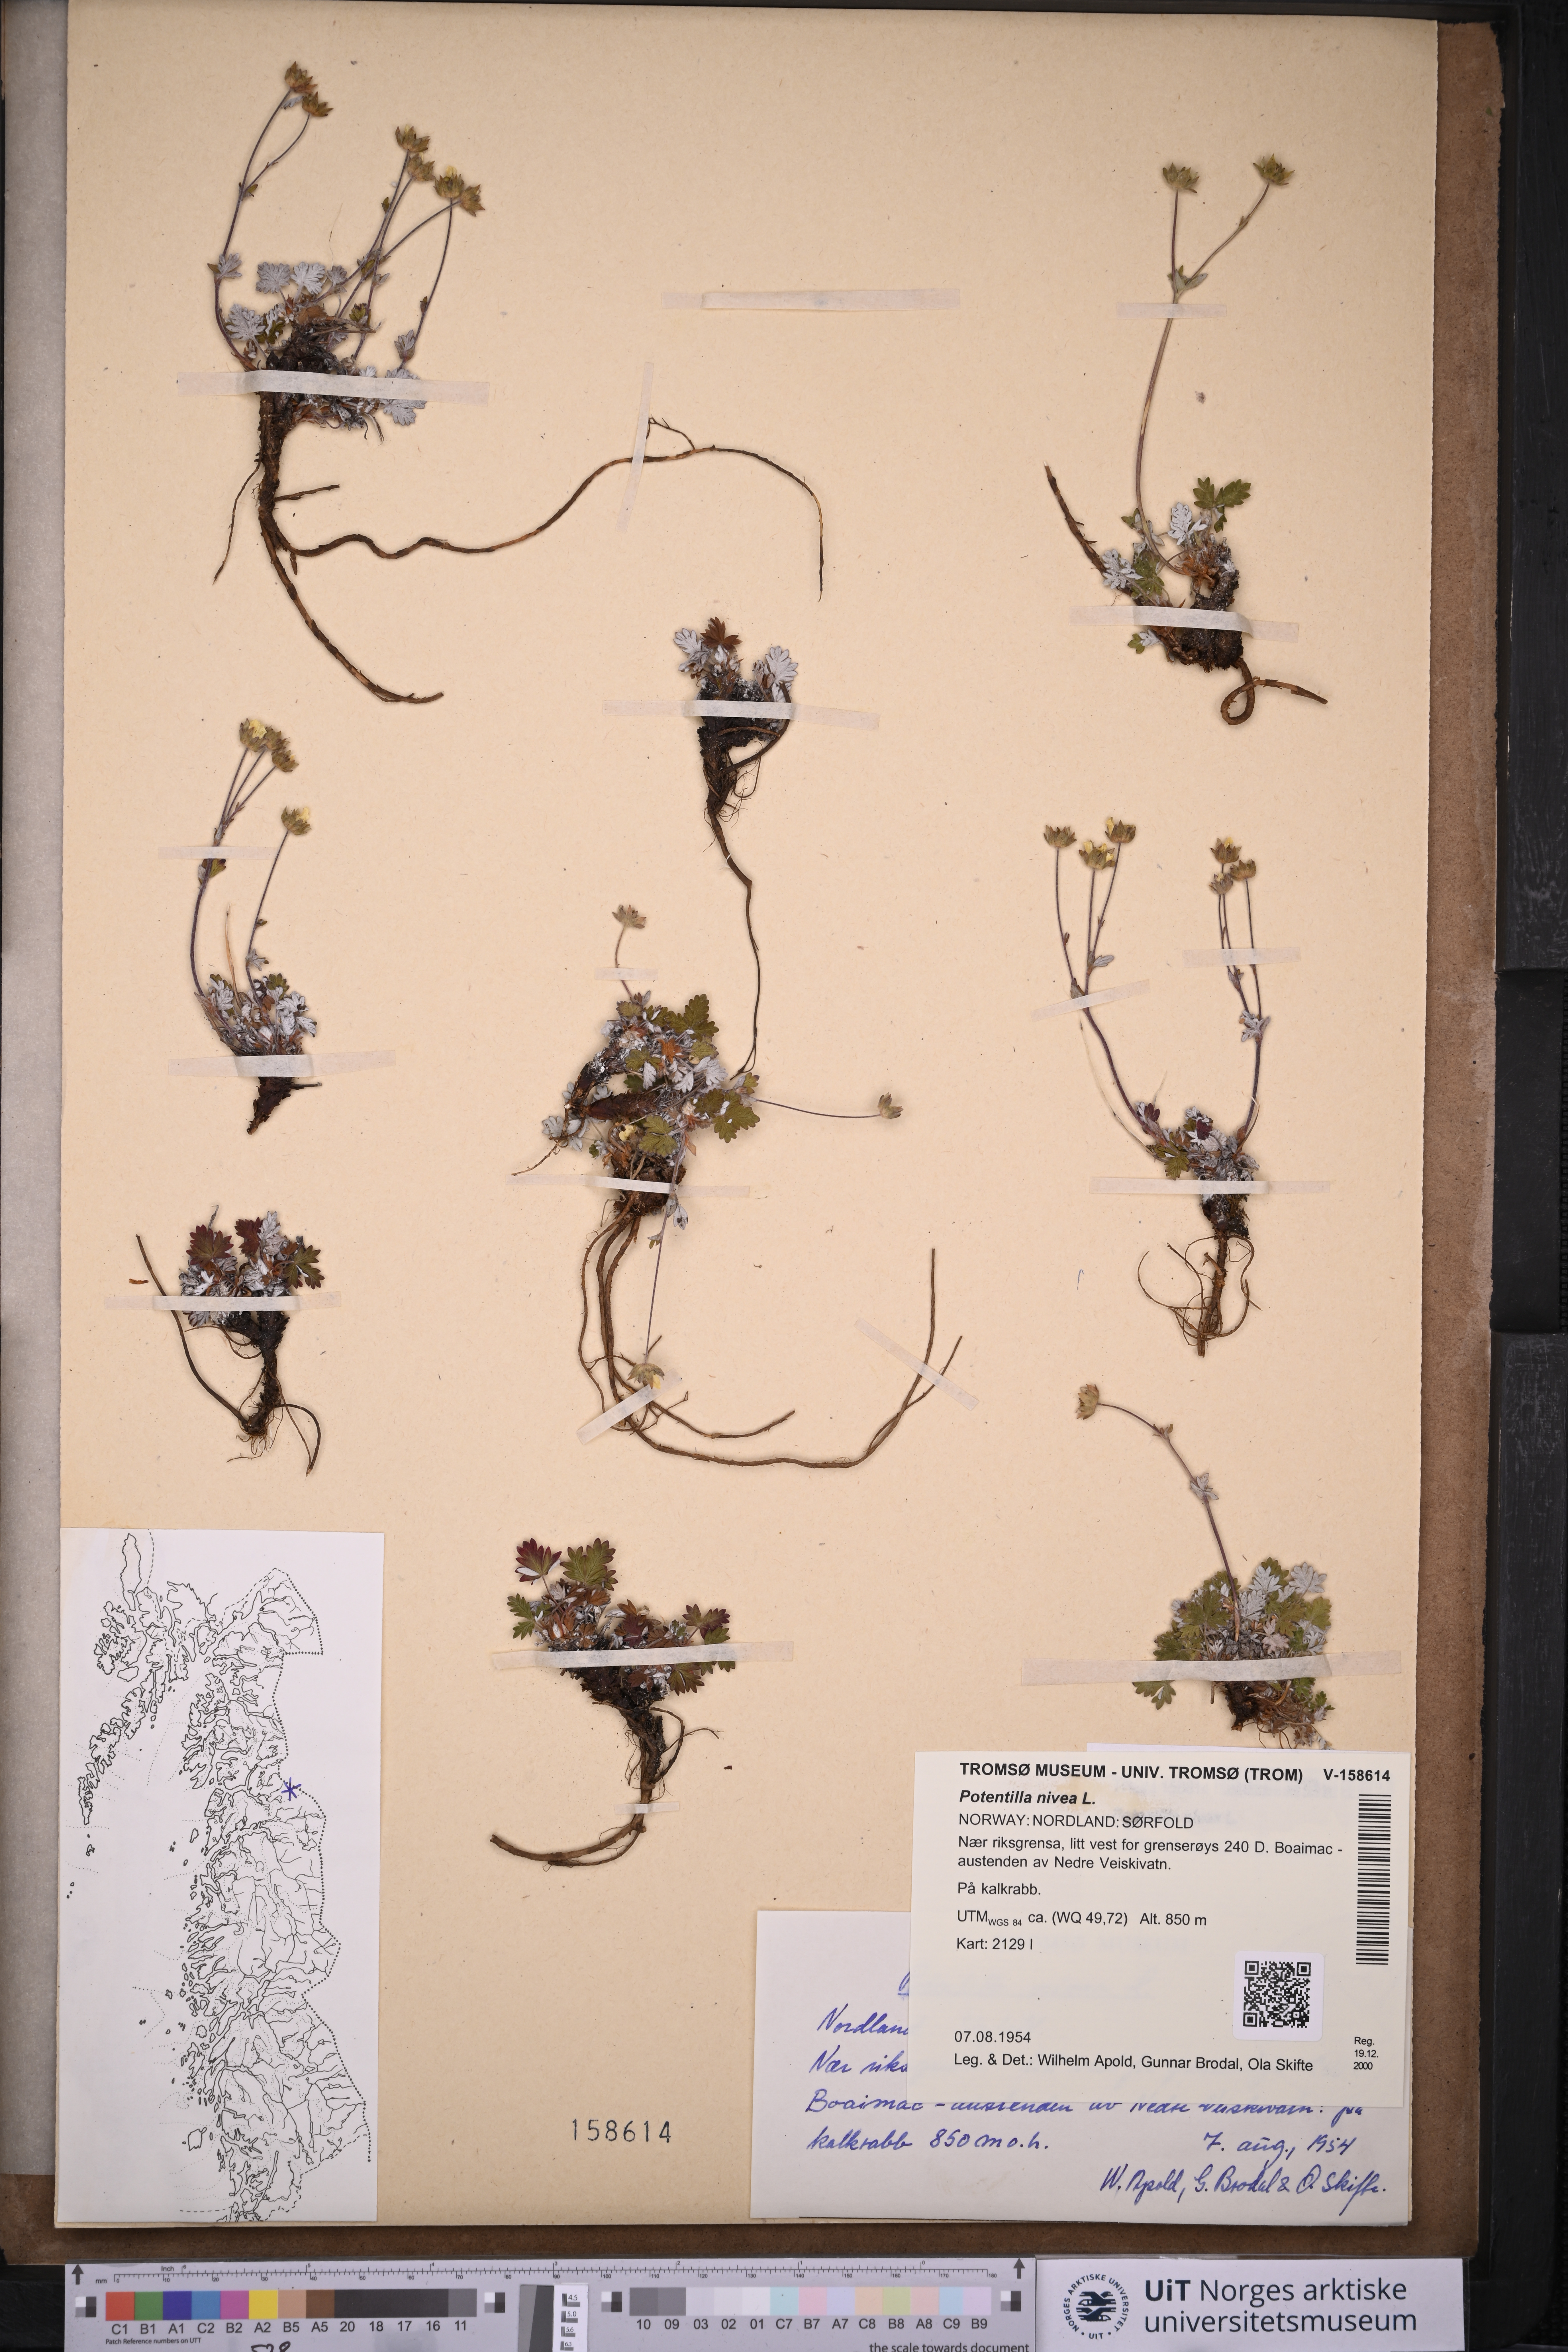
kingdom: Plantae
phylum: Tracheophyta
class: Magnoliopsida
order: Rosales
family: Rosaceae
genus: Potentilla
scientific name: Potentilla arenosa
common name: Bluff cinquefoil
